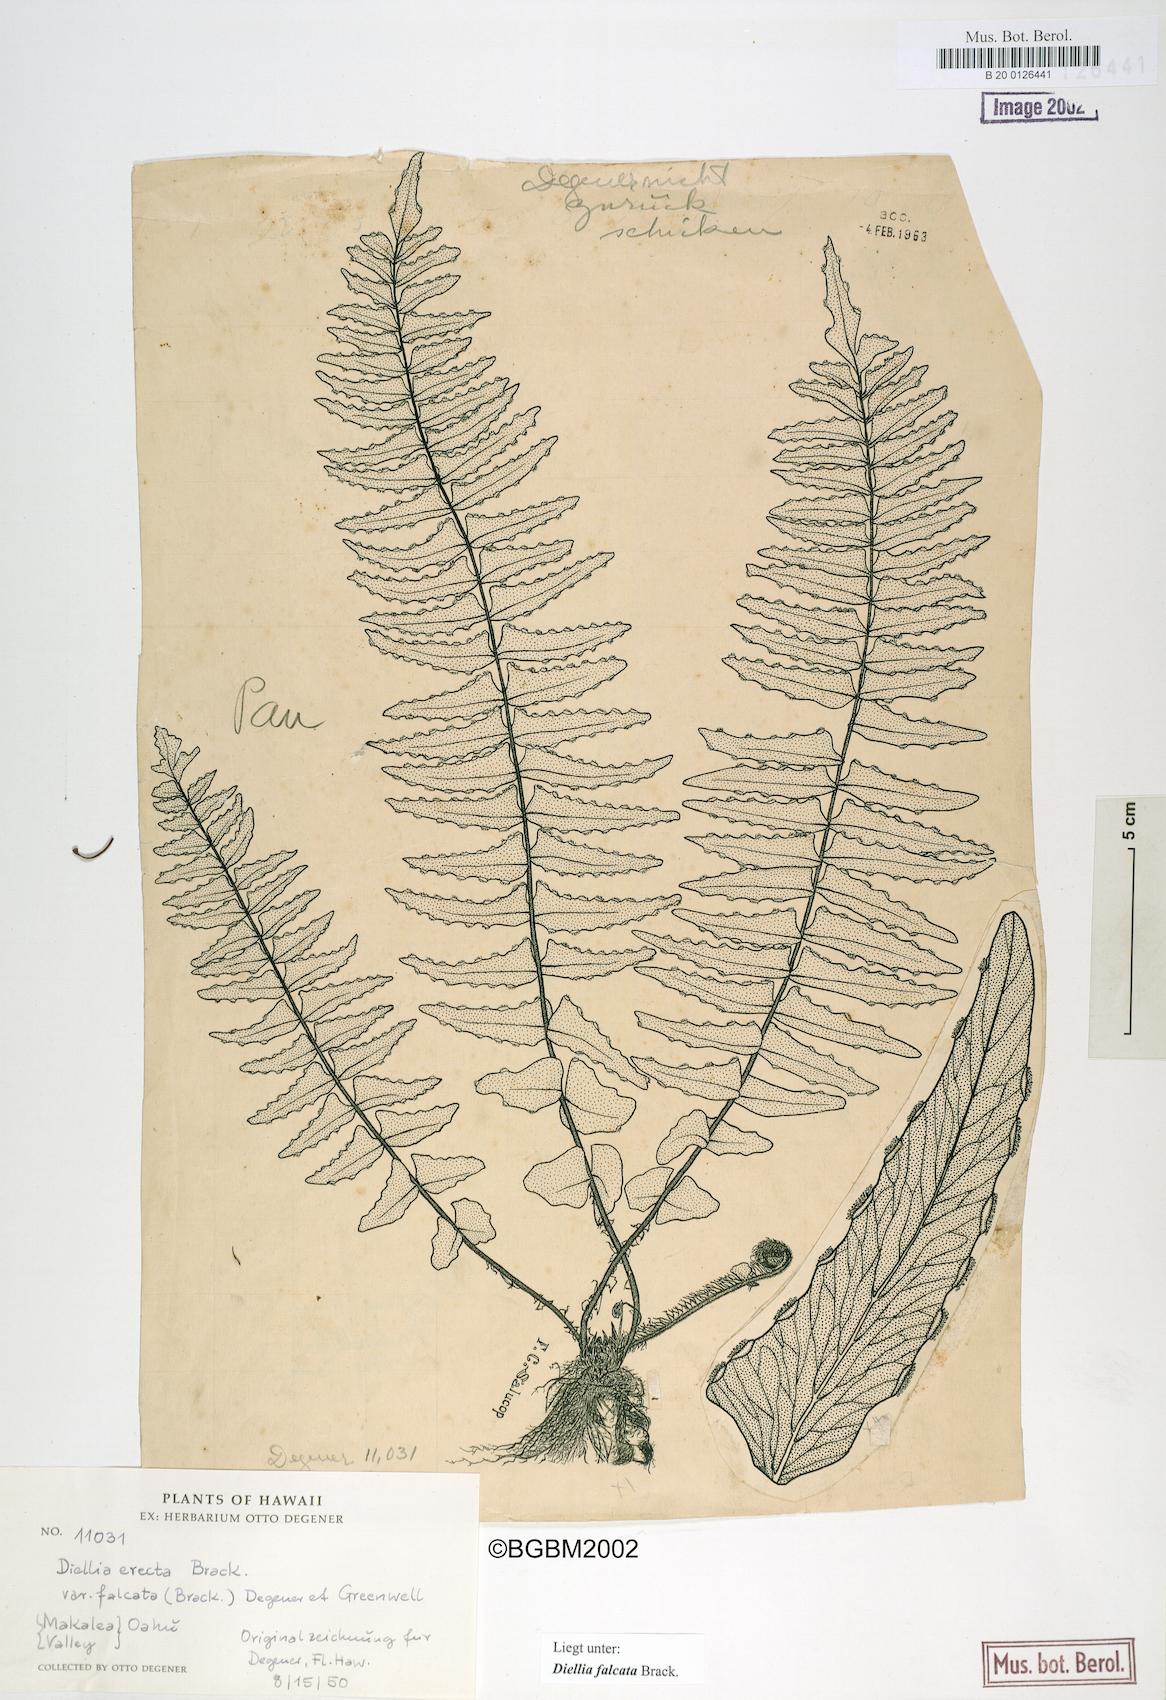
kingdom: Plantae
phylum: Tracheophyta
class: Polypodiopsida
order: Polypodiales
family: Aspleniaceae
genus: Asplenium
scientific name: Asplenium dielfalcatum
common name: Sickle island spleenwort
